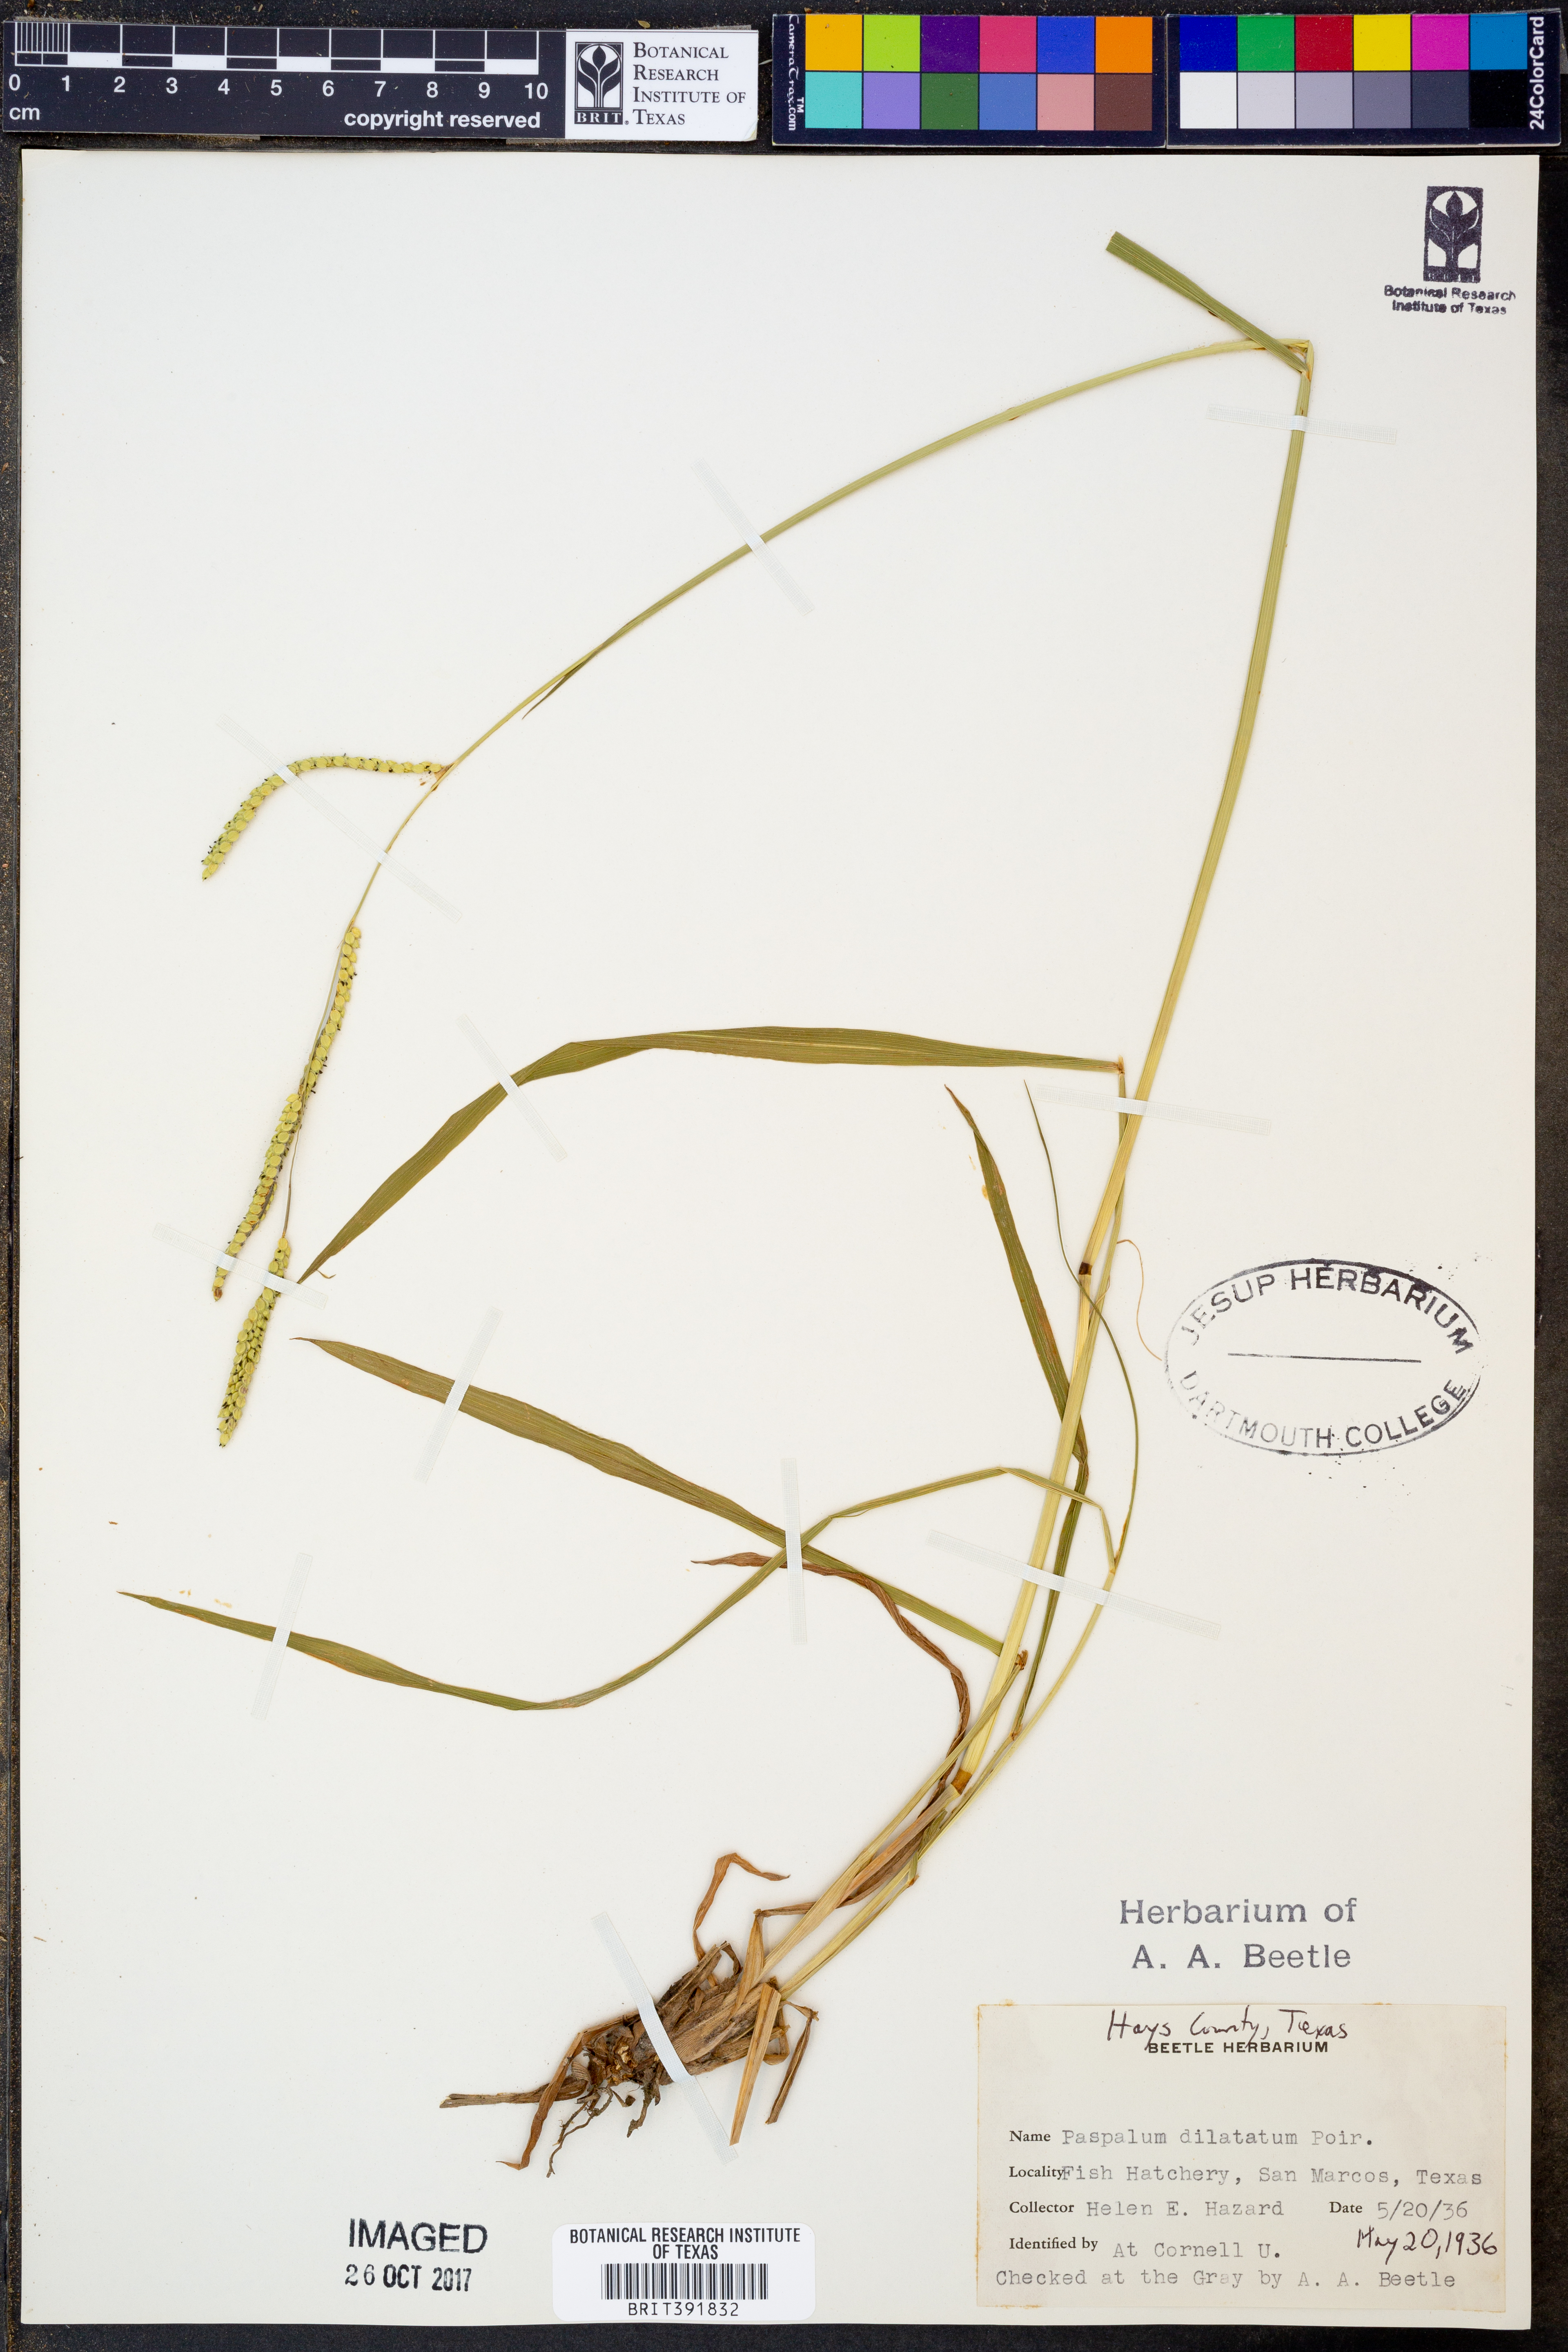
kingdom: Plantae
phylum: Tracheophyta
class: Liliopsida
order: Poales
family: Poaceae
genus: Paspalum
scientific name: Paspalum dilatatum
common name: Dallisgrass
